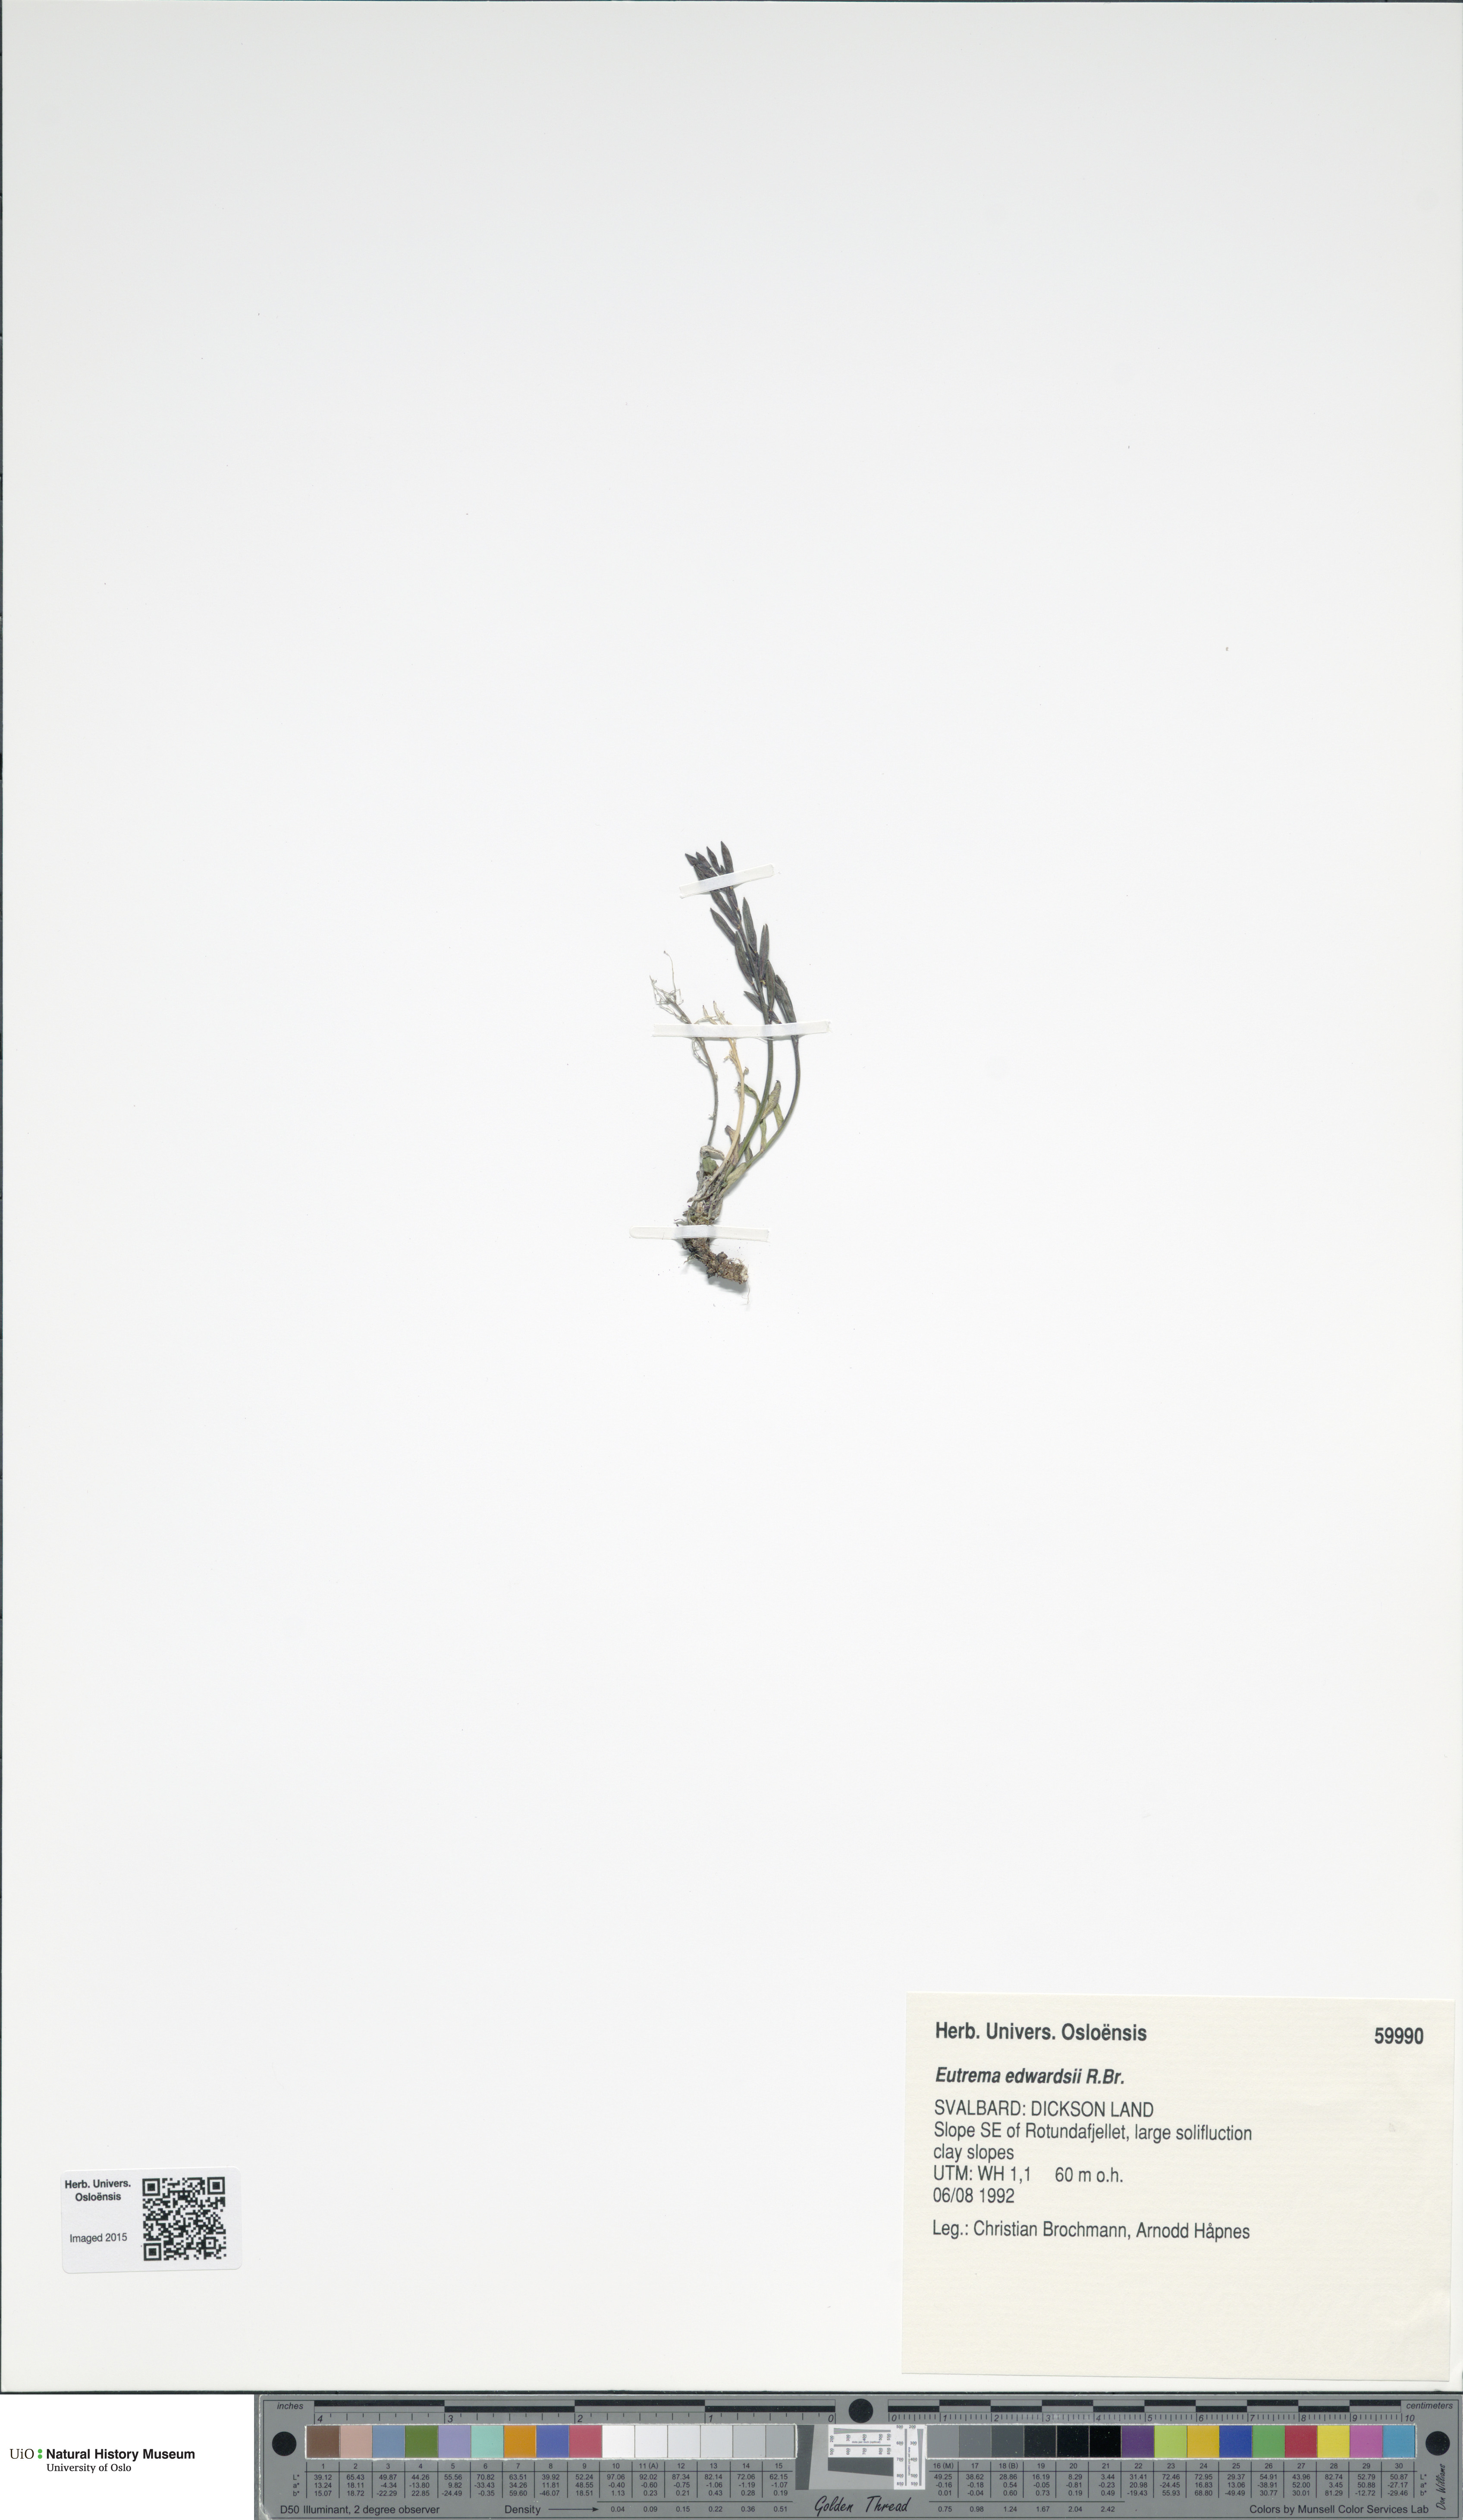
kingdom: Plantae
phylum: Tracheophyta
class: Magnoliopsida
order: Brassicales
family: Brassicaceae
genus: Eutrema
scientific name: Eutrema edwardsii
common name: Penland alpine fen mustard
